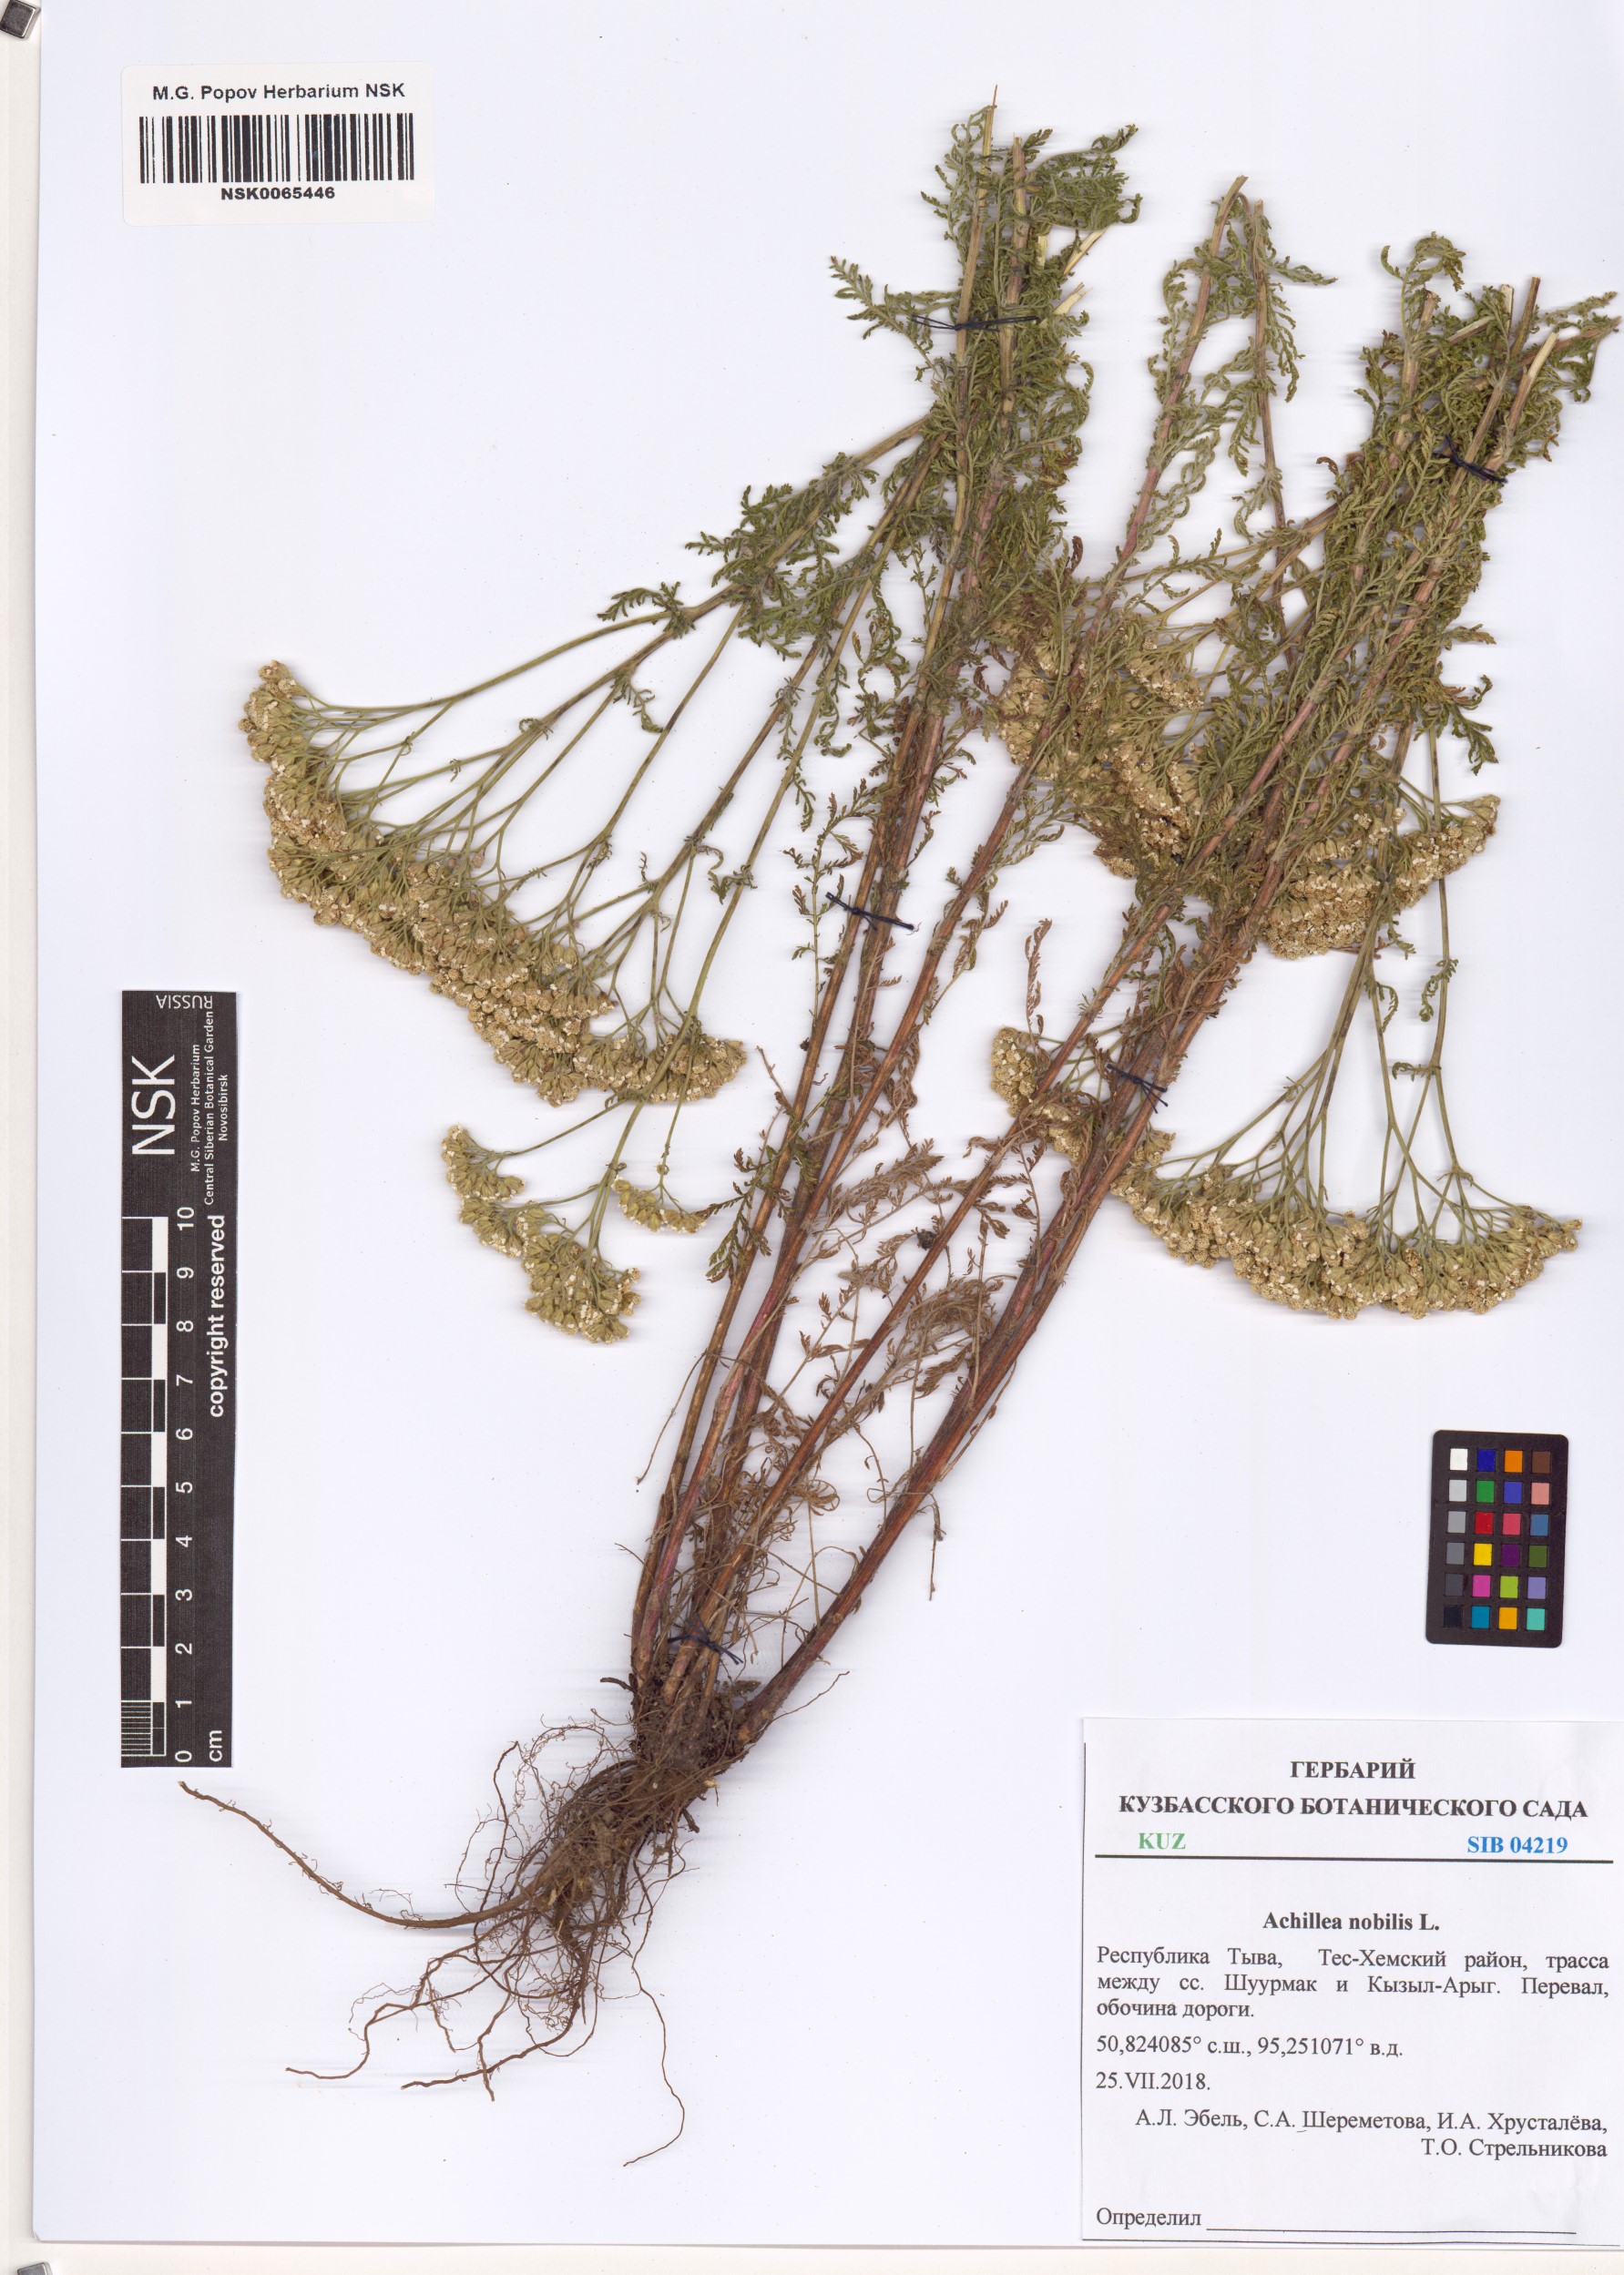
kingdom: Plantae
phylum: Tracheophyta
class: Magnoliopsida
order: Asterales
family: Asteraceae
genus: Achillea
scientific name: Achillea nobilis
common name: Noble yarrow
